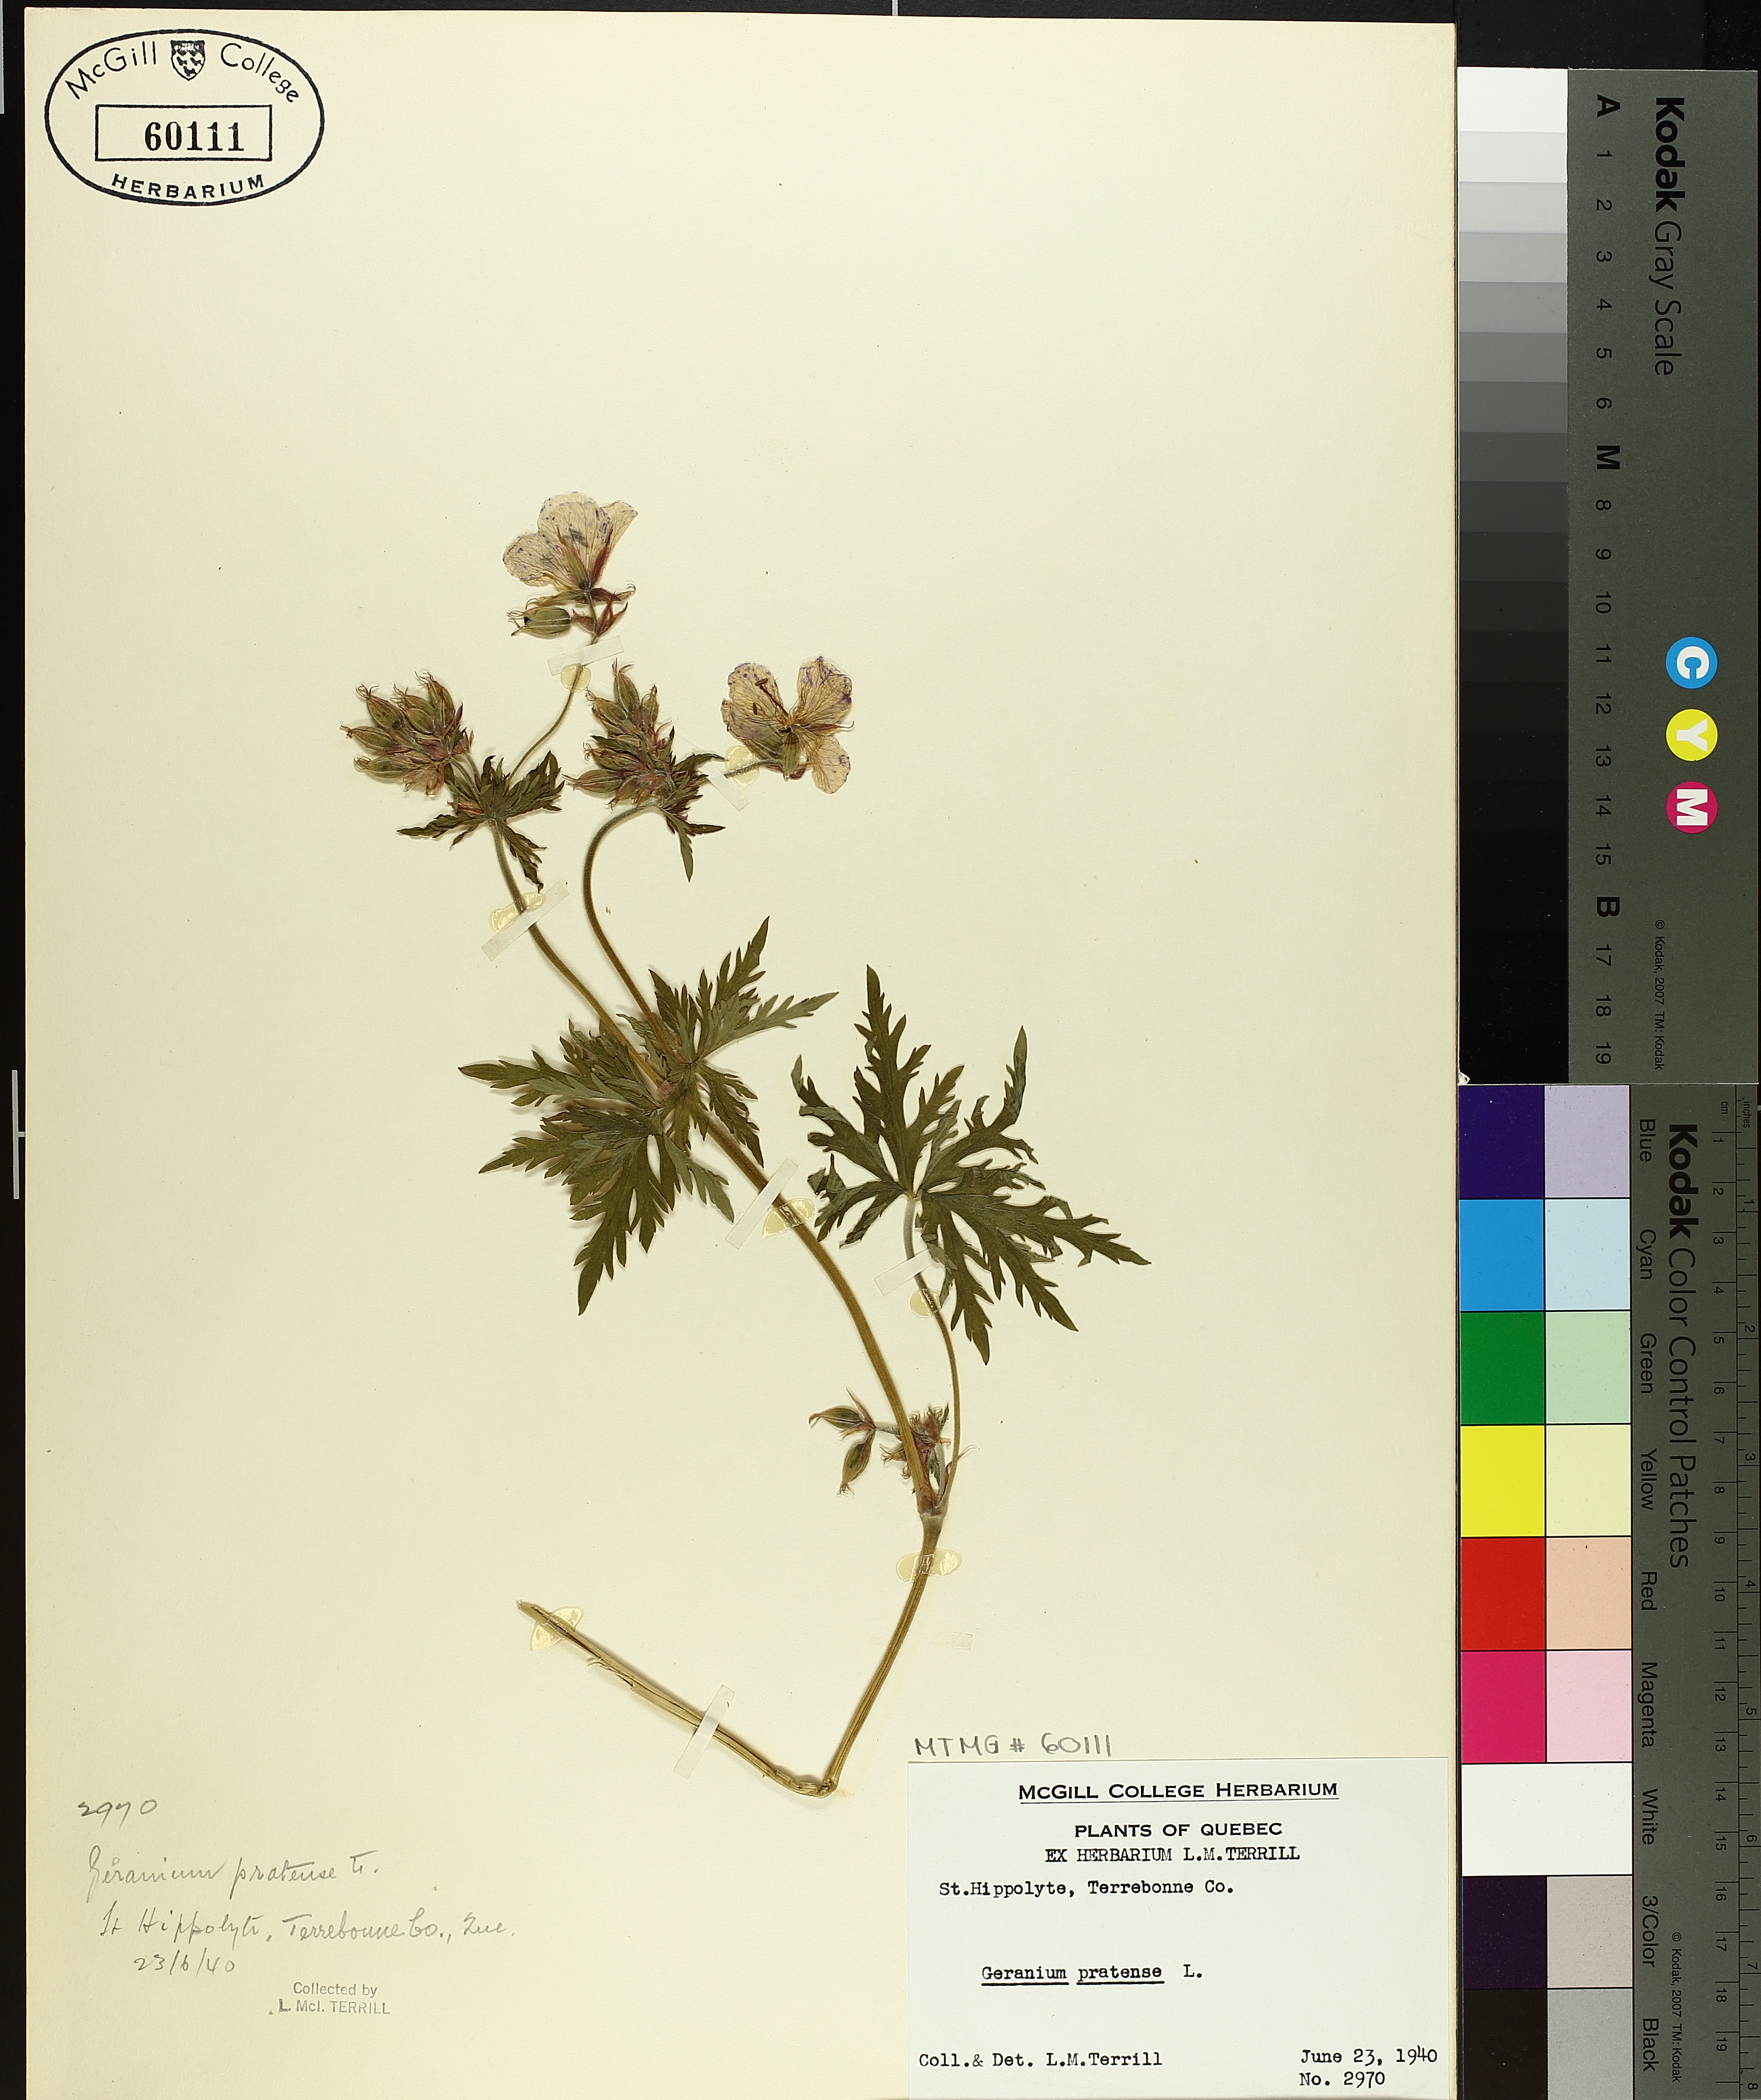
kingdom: Plantae
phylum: Tracheophyta
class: Magnoliopsida
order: Geraniales
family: Geraniaceae
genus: Geranium
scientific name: Geranium pratense
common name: Meadow crane's-bill
